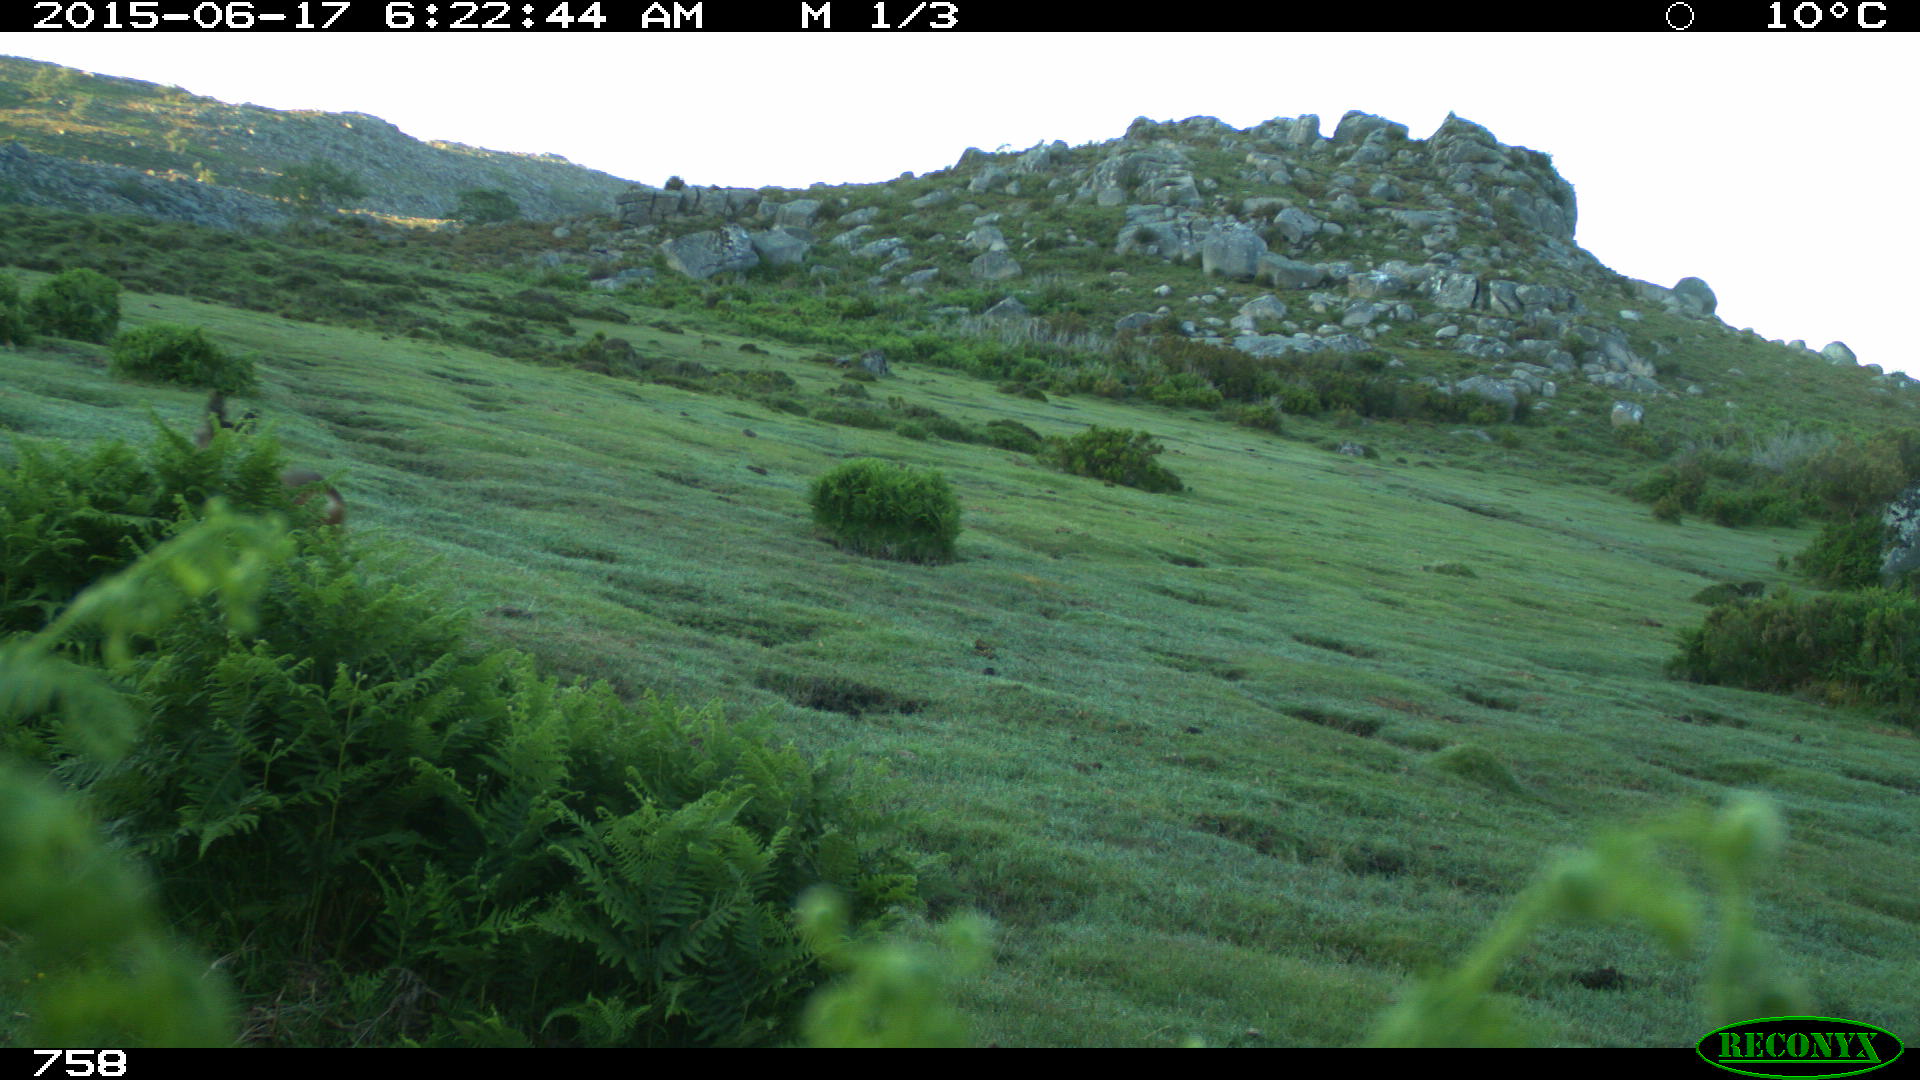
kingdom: Animalia
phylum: Chordata
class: Mammalia
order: Artiodactyla
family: Cervidae
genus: Capreolus
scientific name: Capreolus capreolus
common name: Western roe deer
